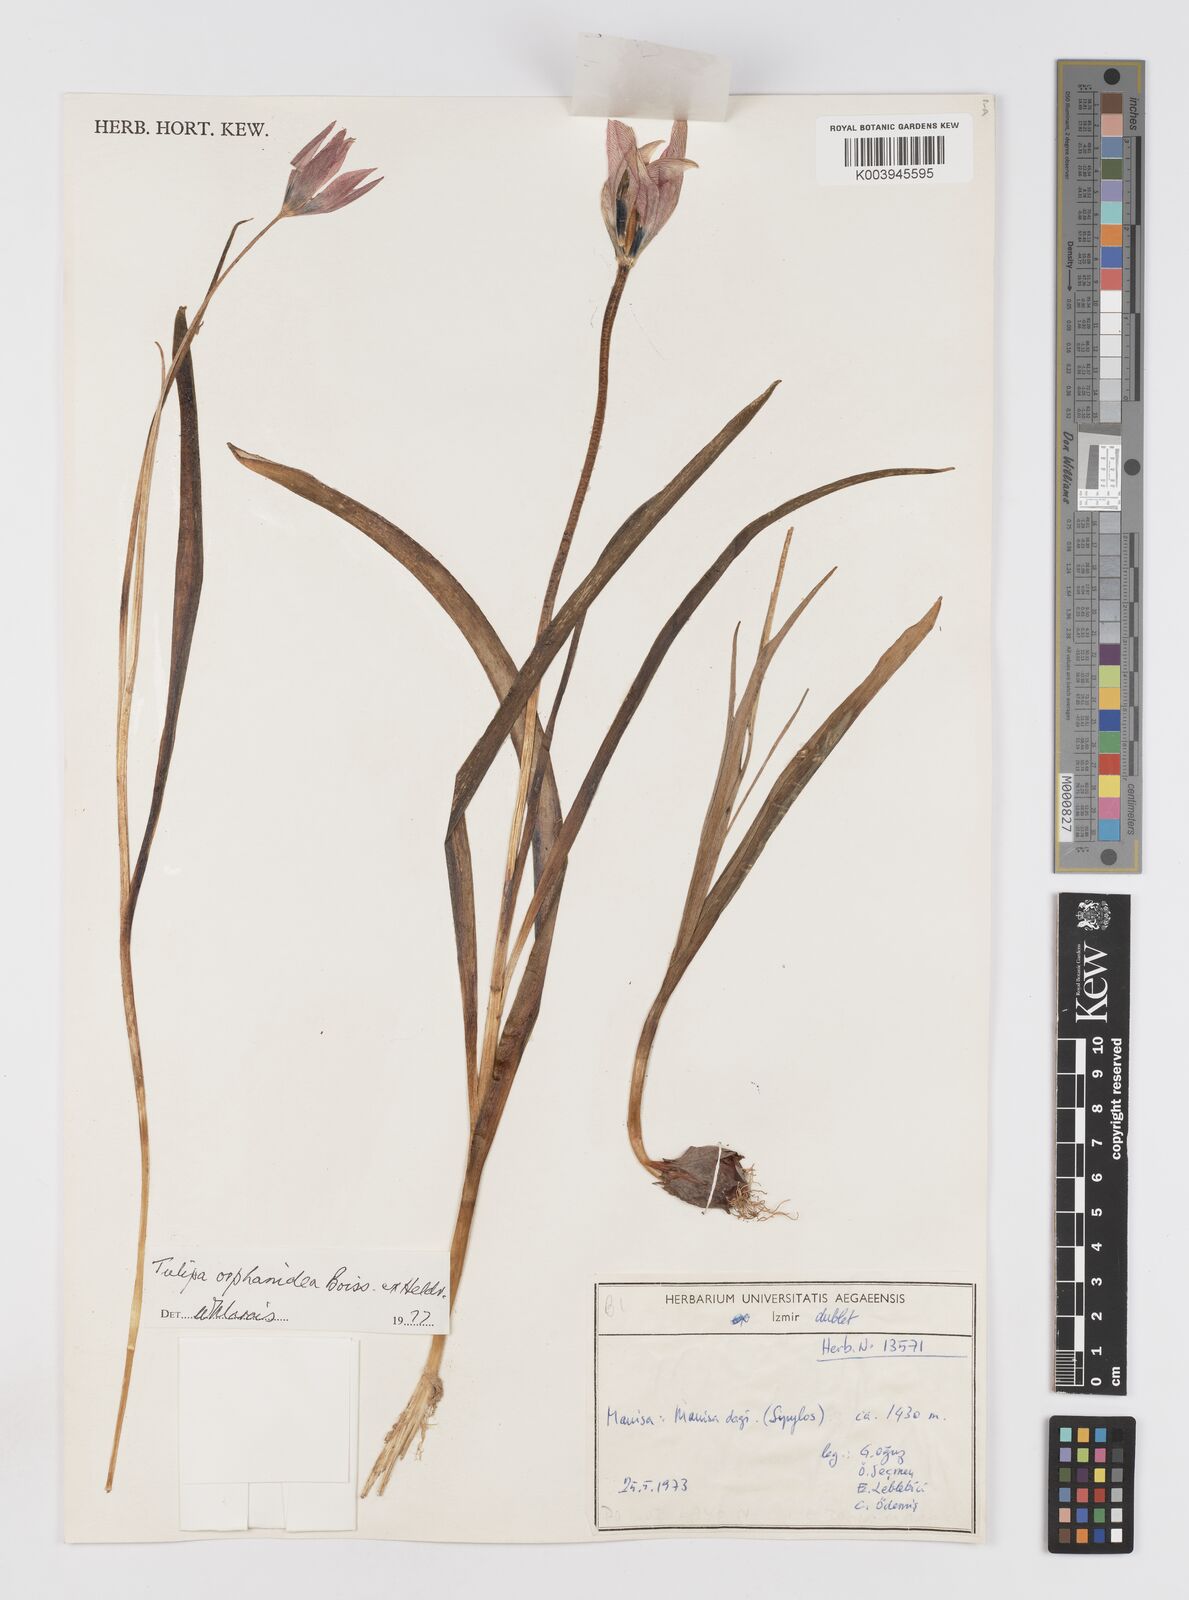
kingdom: Plantae
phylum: Tracheophyta
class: Liliopsida
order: Liliales
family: Liliaceae
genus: Tulipa
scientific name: Tulipa orphanidea
